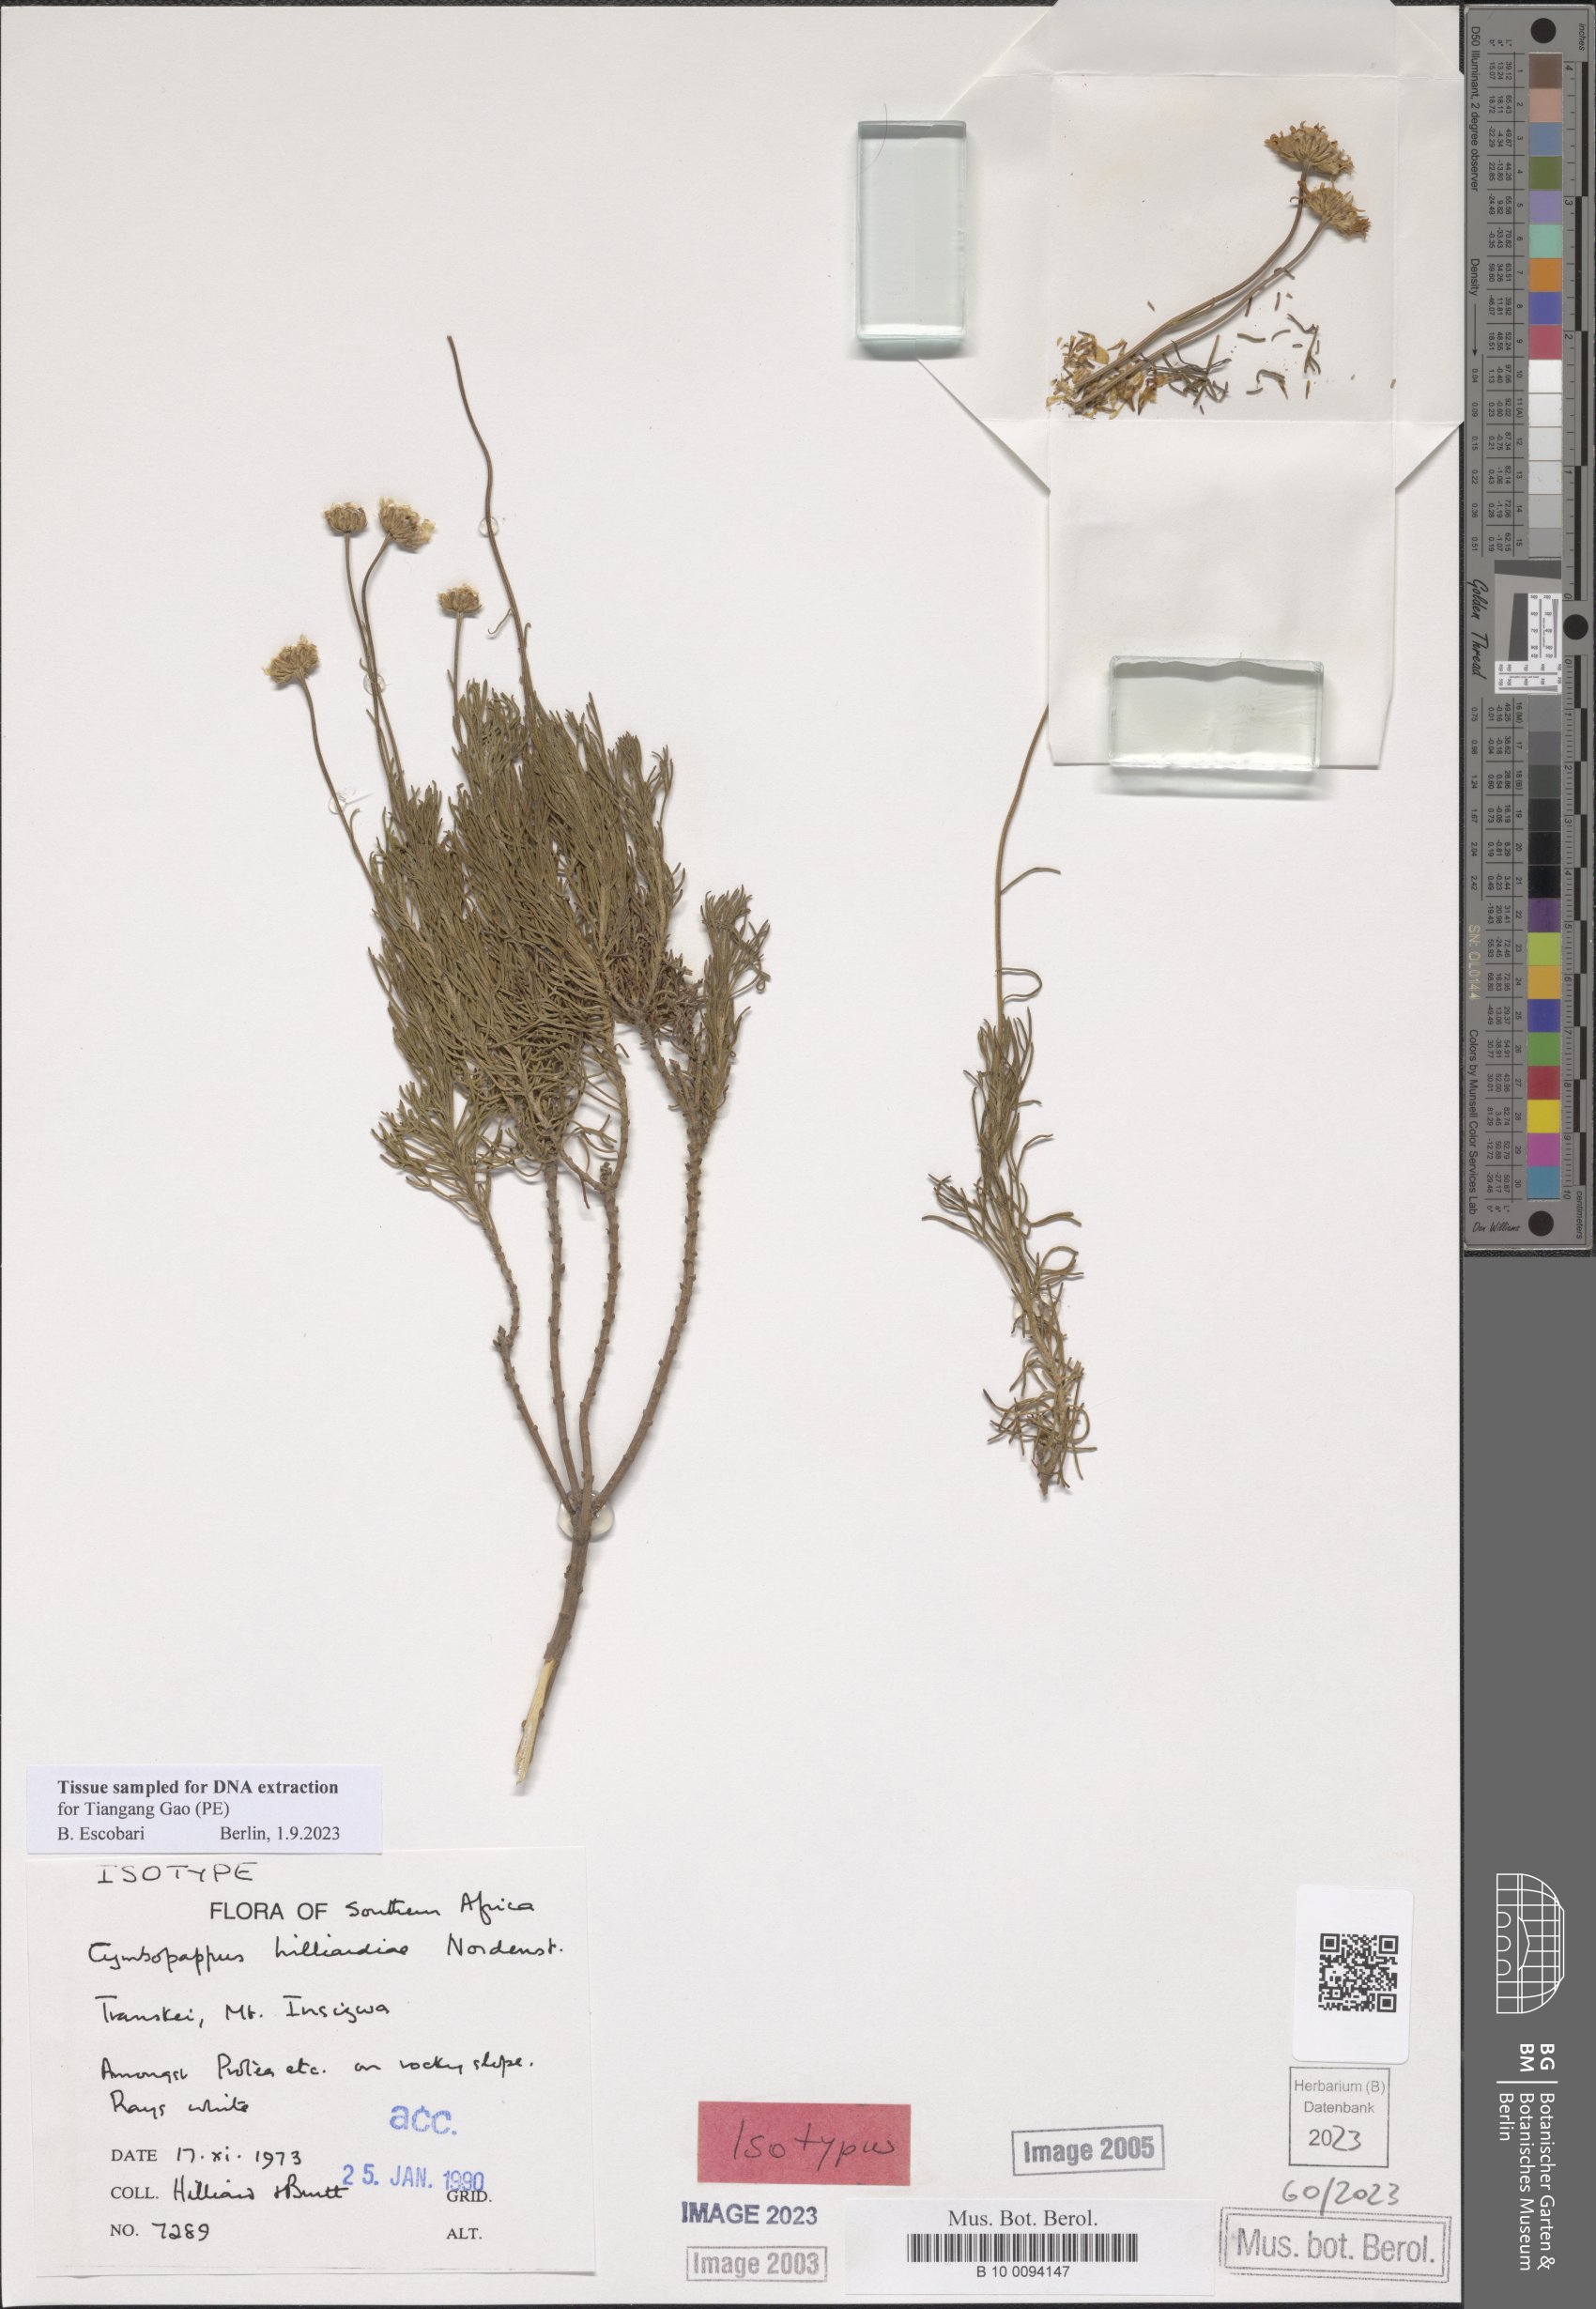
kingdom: Plantae
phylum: Tracheophyta
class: Magnoliopsida
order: Asterales
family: Asteraceae
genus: Cymbopappus
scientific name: Cymbopappus hilliardiae
